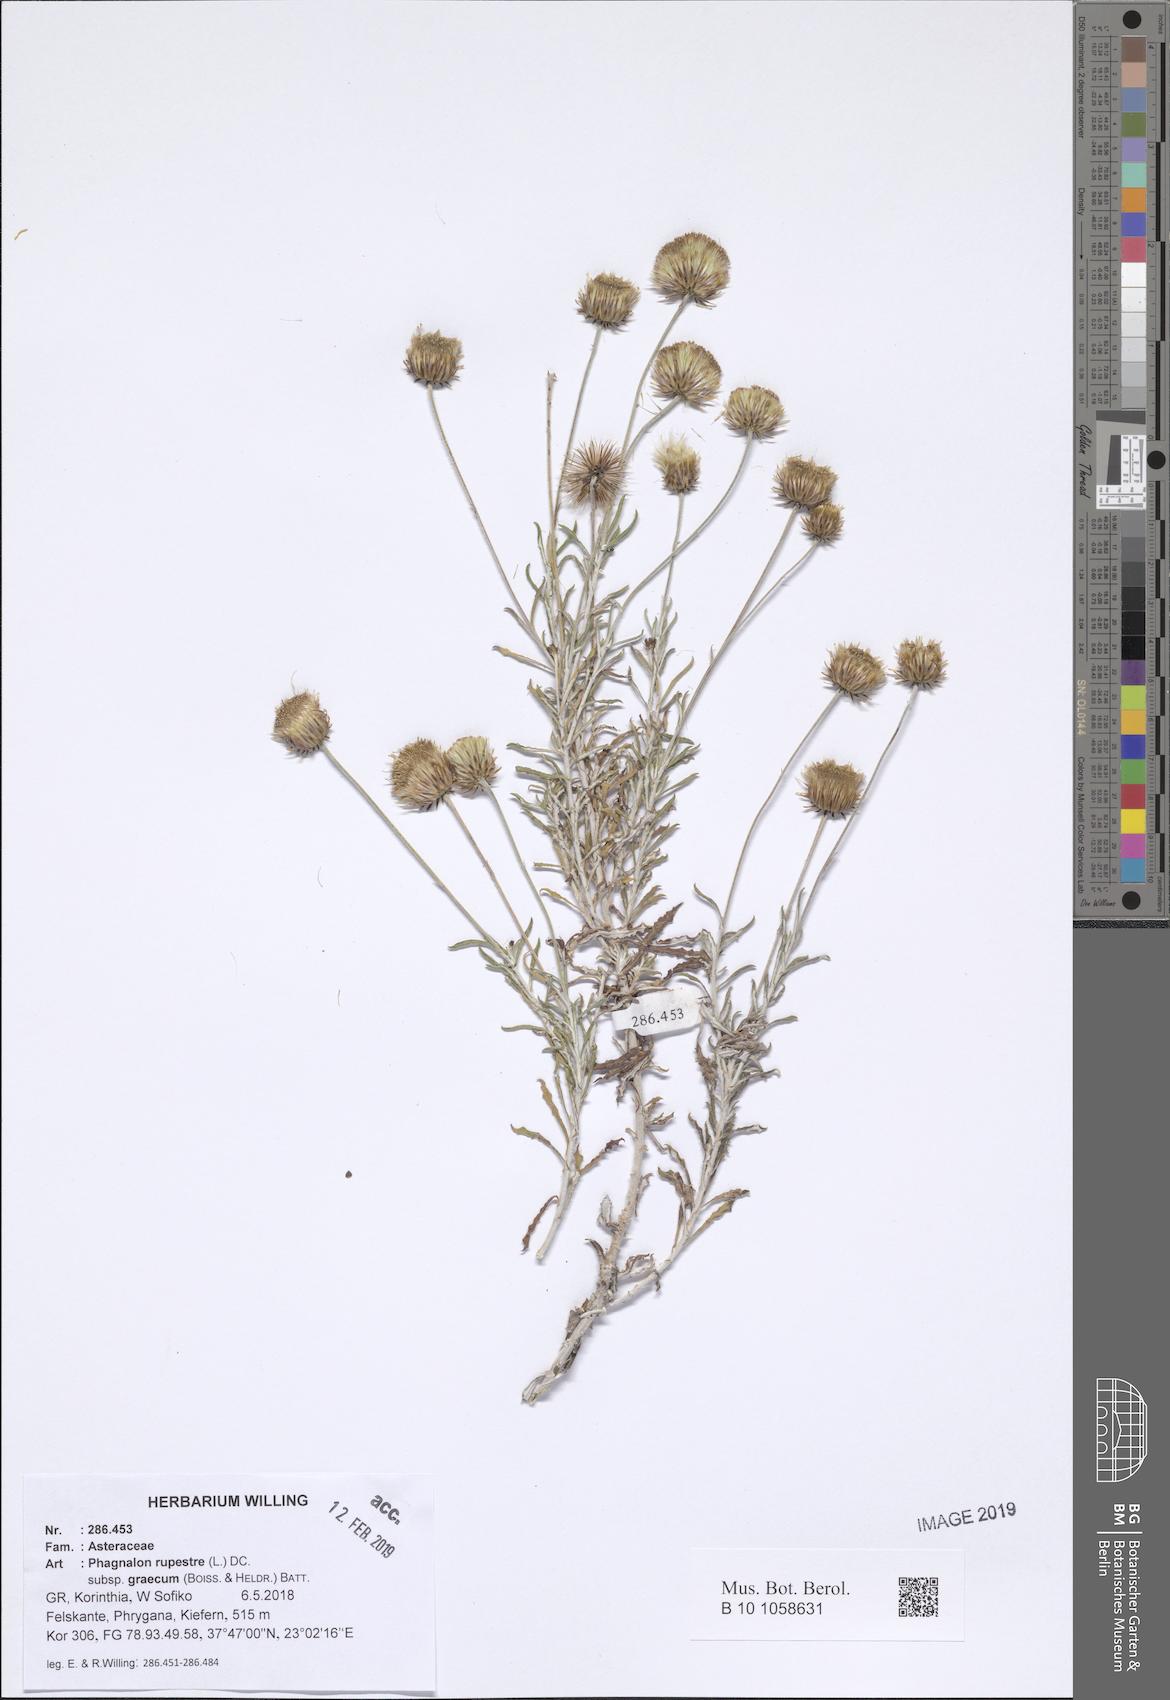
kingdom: Plantae
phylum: Tracheophyta
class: Magnoliopsida
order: Asterales
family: Asteraceae
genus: Phagnalon
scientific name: Phagnalon graecum
